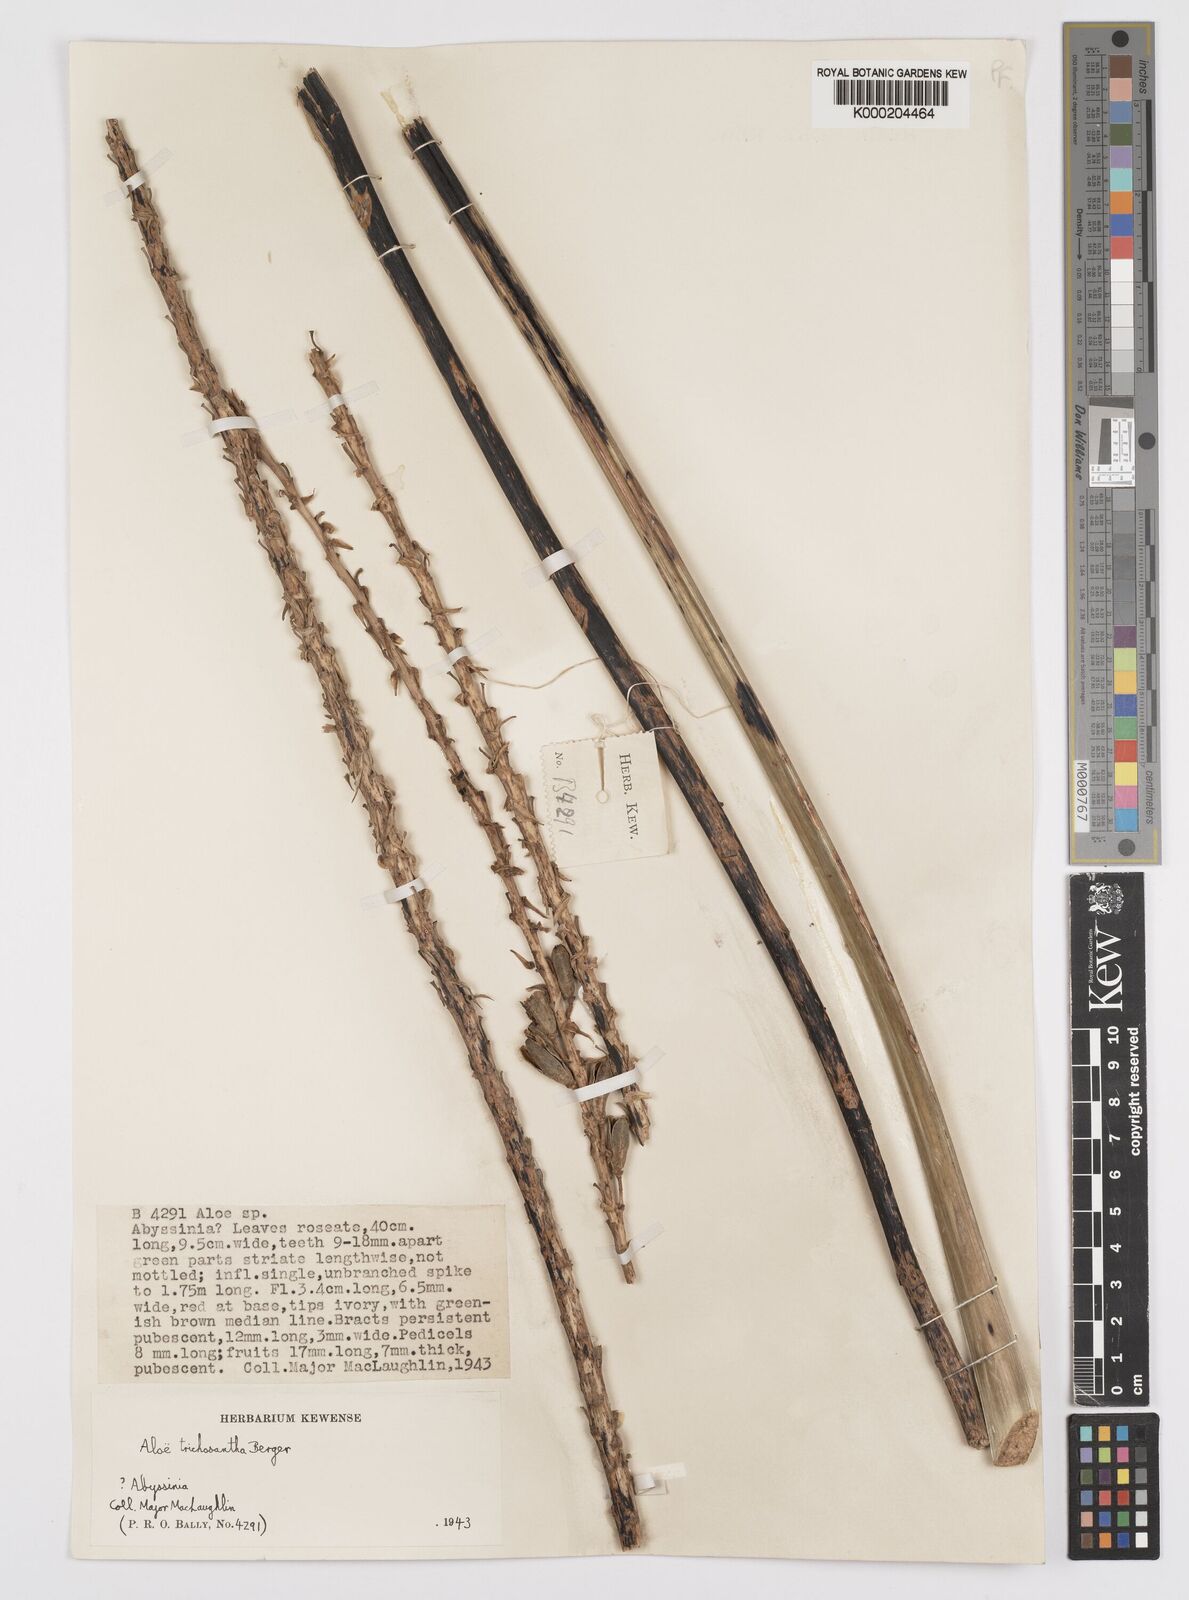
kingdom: Plantae
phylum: Tracheophyta
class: Liliopsida
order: Asparagales
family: Asphodelaceae
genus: Aloe
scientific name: Aloe trichosantha
